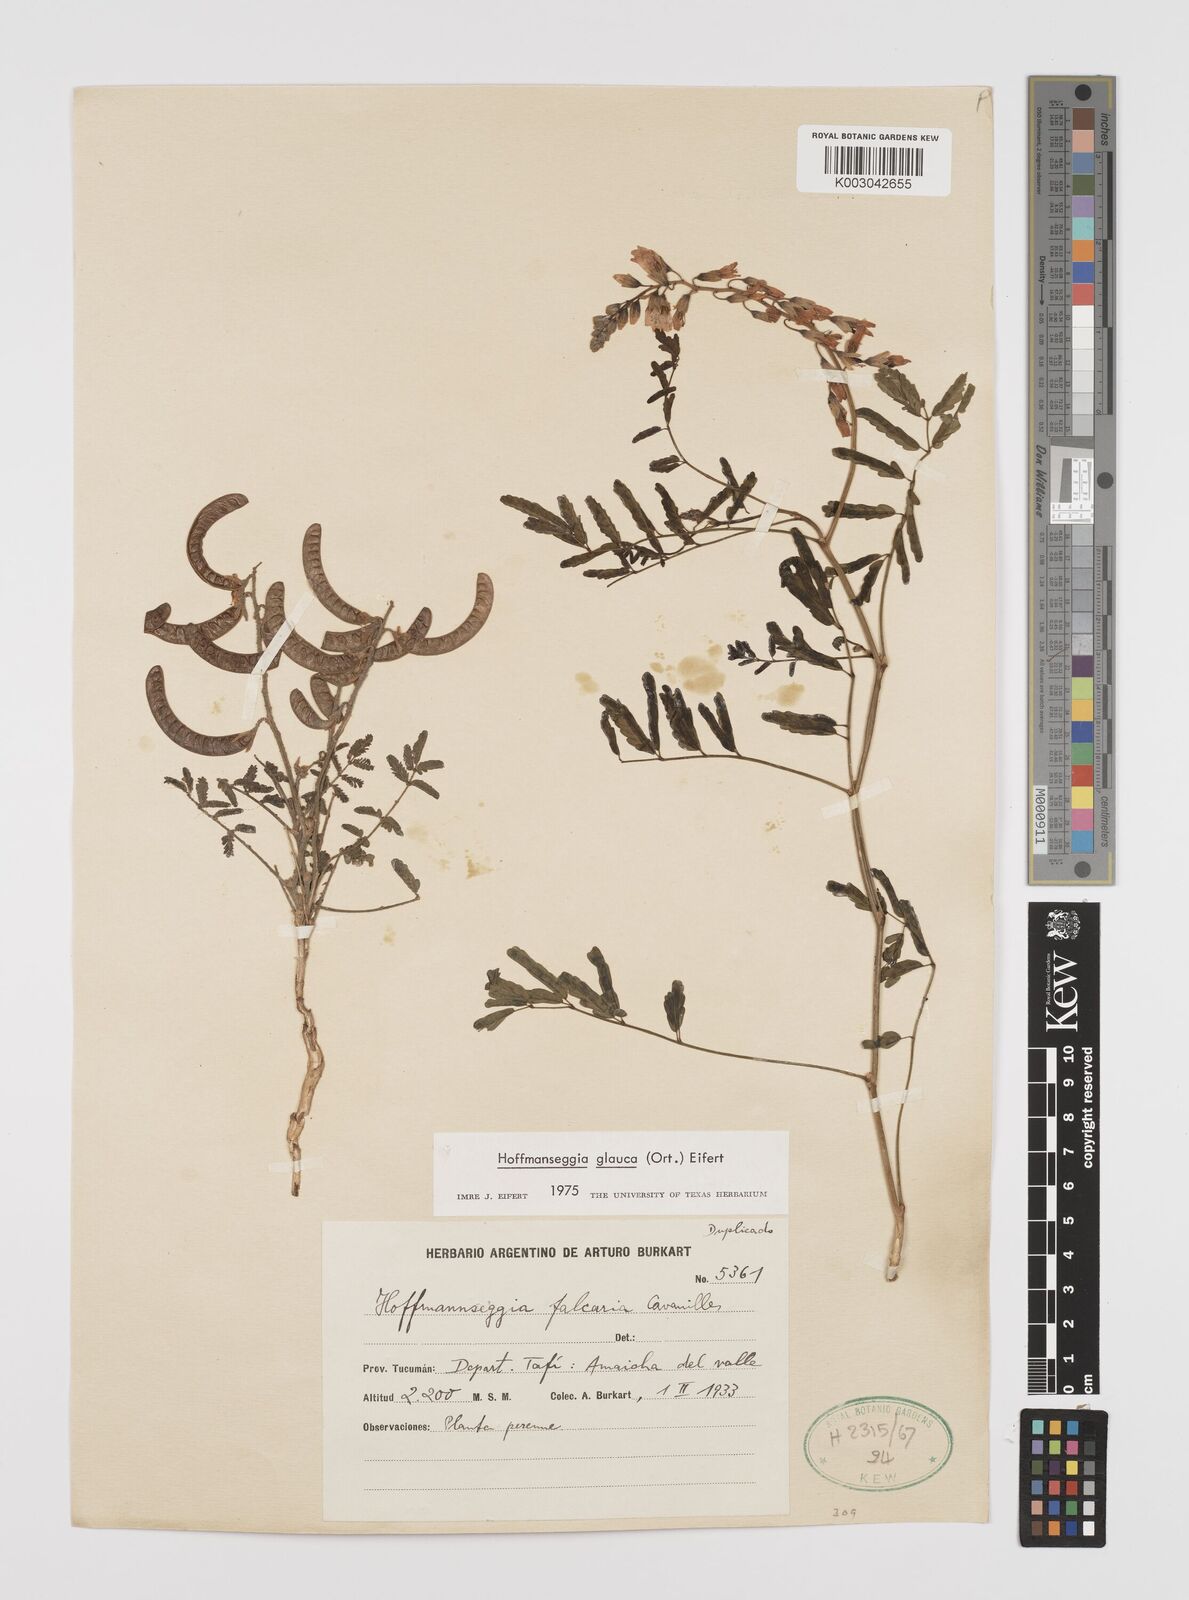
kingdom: Plantae
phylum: Tracheophyta
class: Magnoliopsida
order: Fabales
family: Fabaceae
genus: Hoffmannseggia
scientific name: Hoffmannseggia glauca
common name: Pignut
